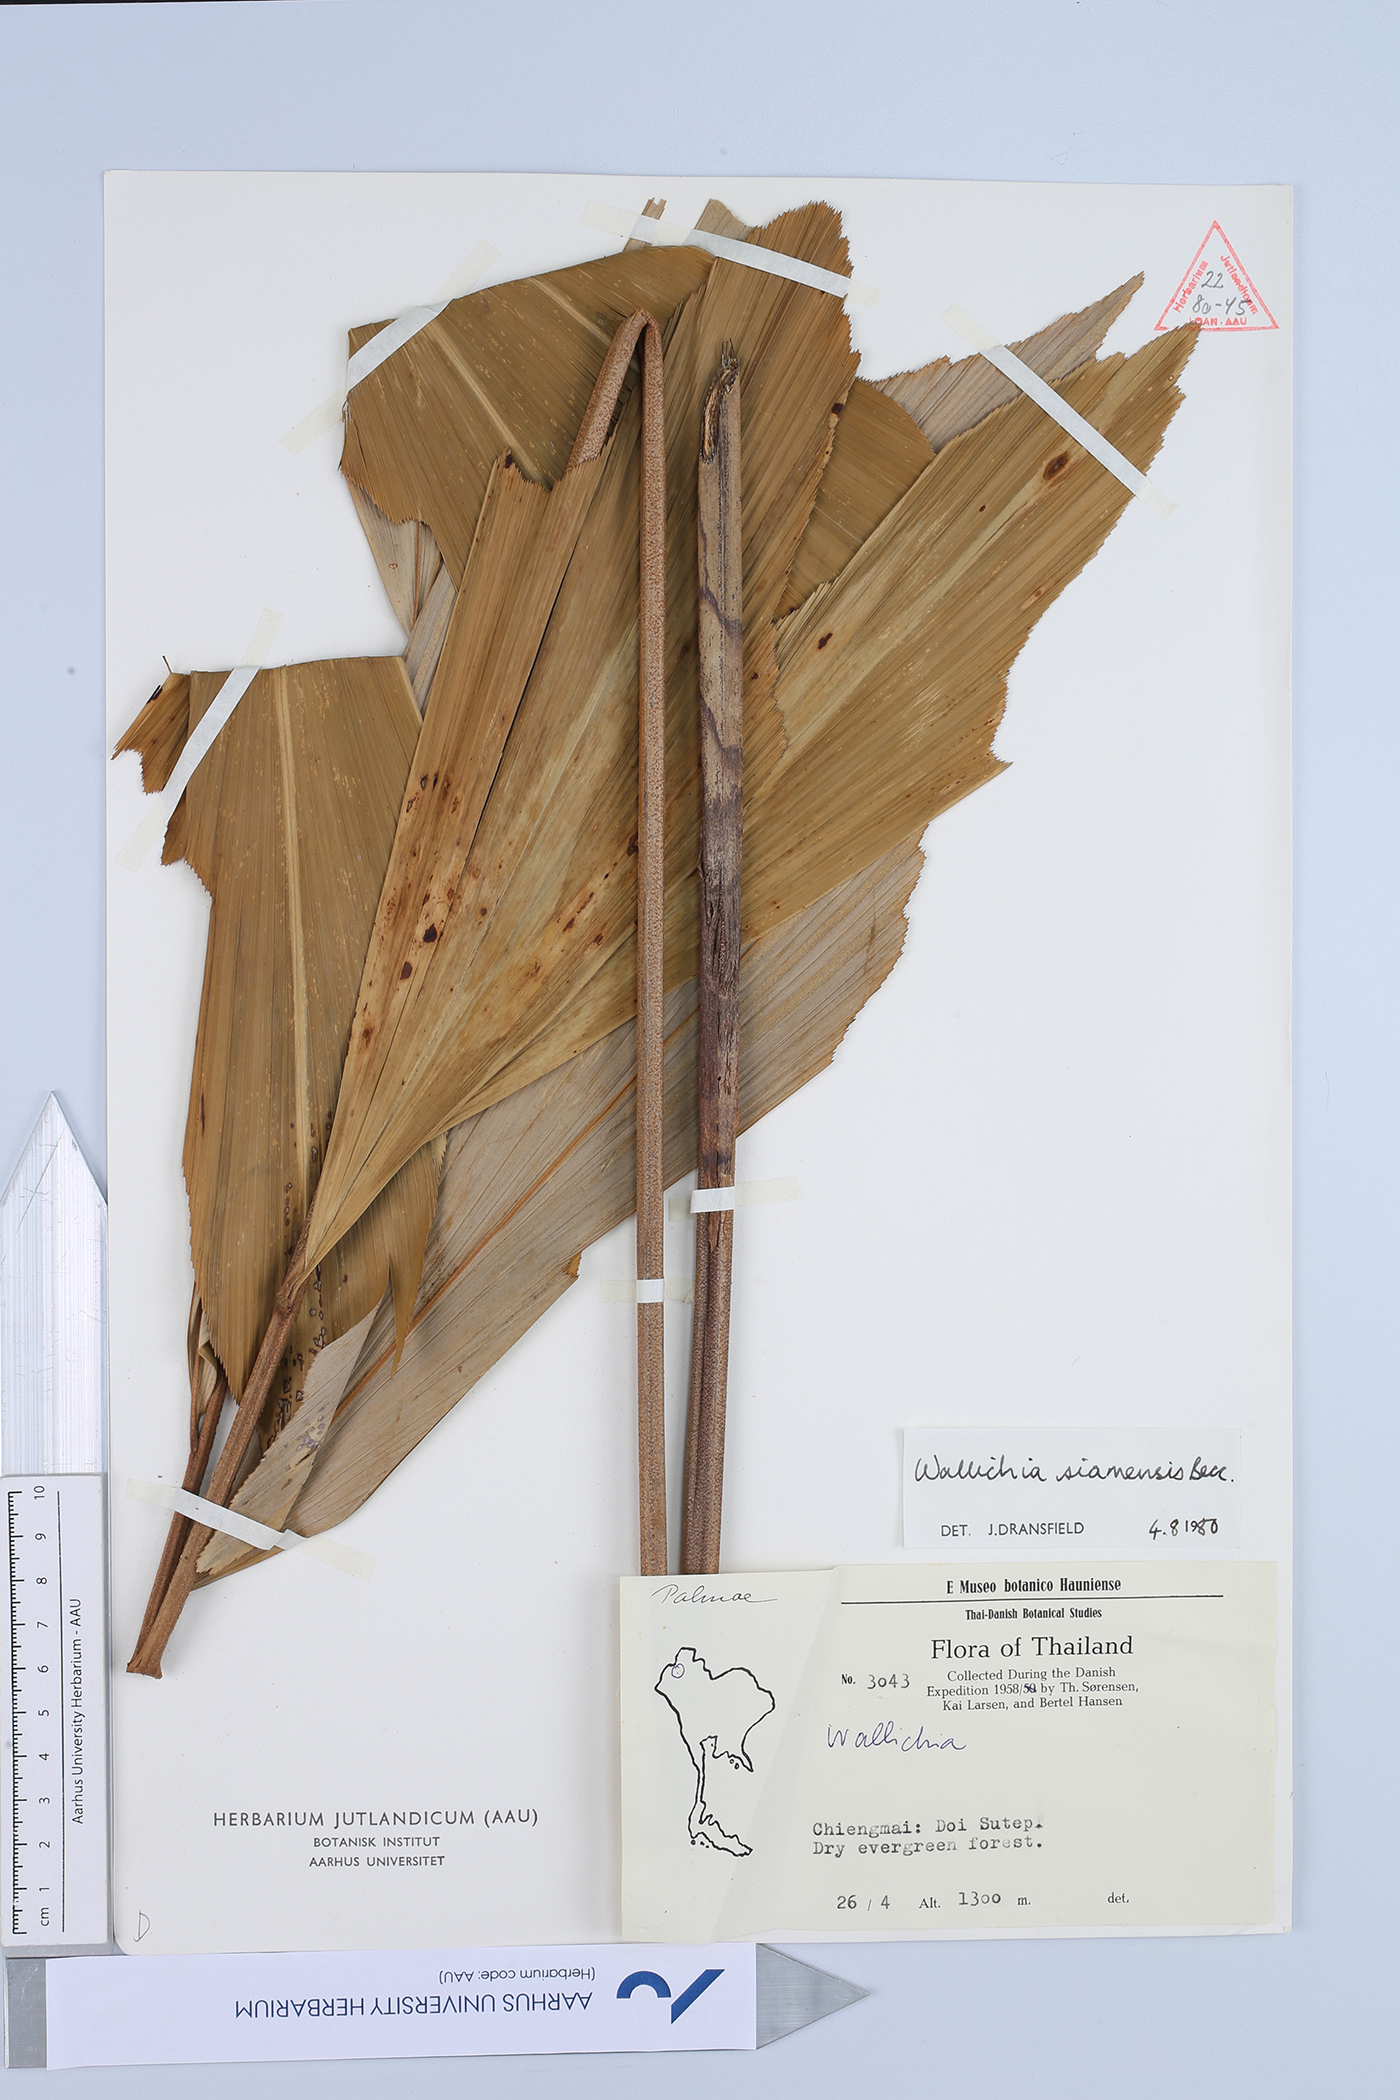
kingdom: Plantae
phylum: Tracheophyta
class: Liliopsida
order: Arecales
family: Arecaceae
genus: Wallichia
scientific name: Wallichia caryotoides
